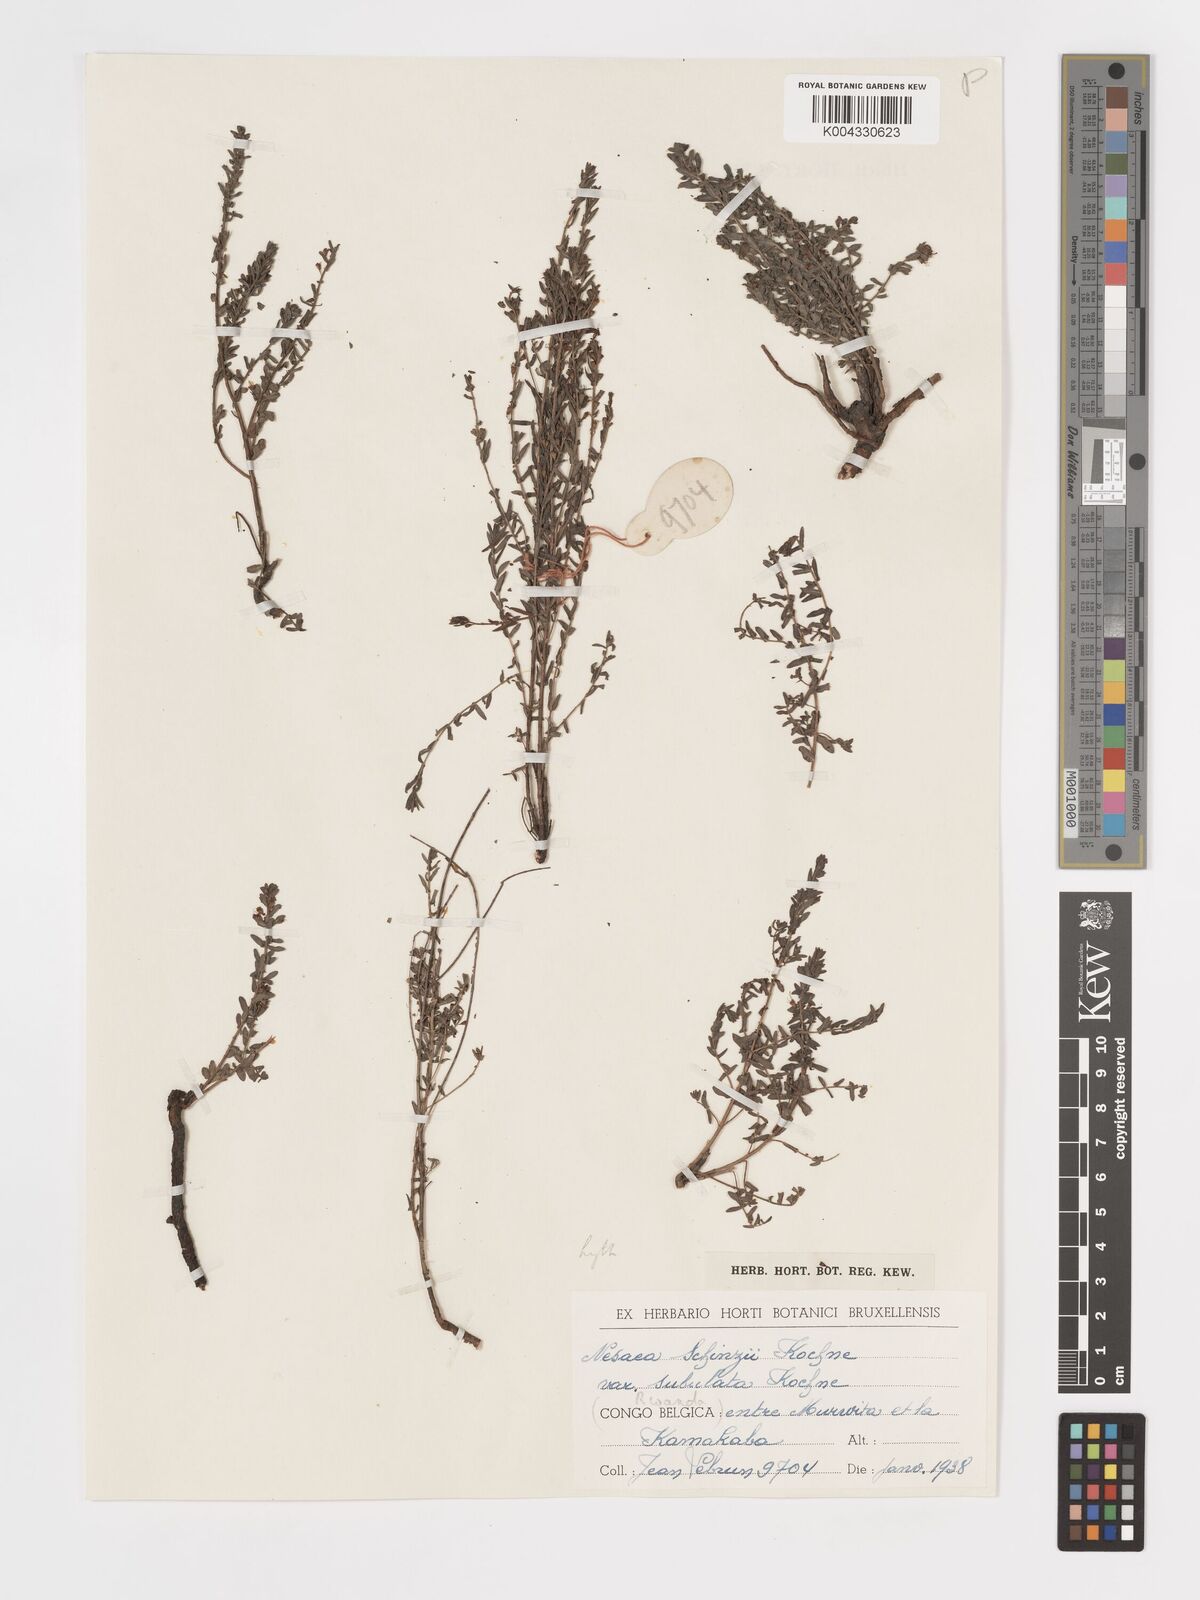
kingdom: Plantae
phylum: Tracheophyta
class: Magnoliopsida
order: Myrtales
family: Lythraceae
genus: Ammannia
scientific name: Ammannia schinzii
